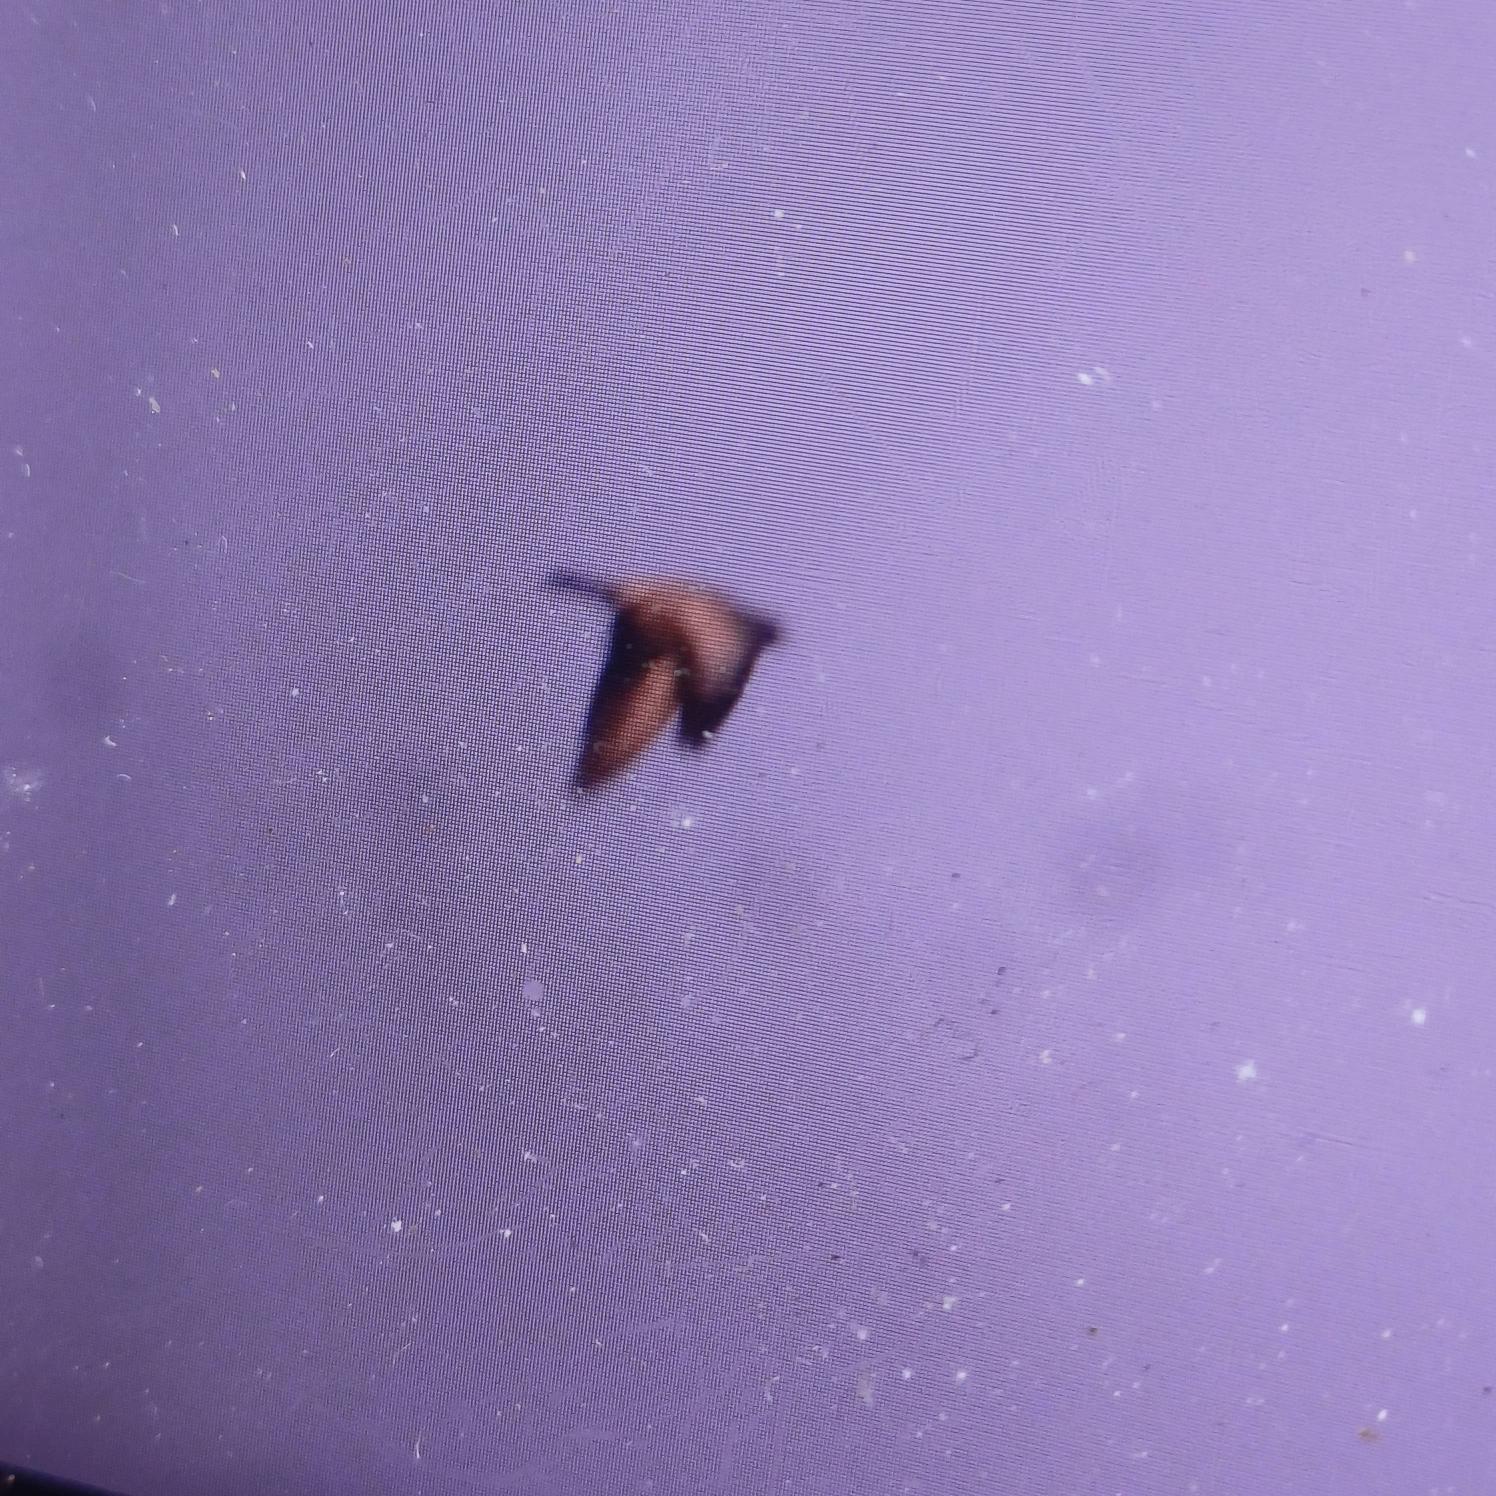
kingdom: Animalia
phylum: Chordata
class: Aves
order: Columbiformes
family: Columbidae
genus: Columba
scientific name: Columba oenas
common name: Huldue
